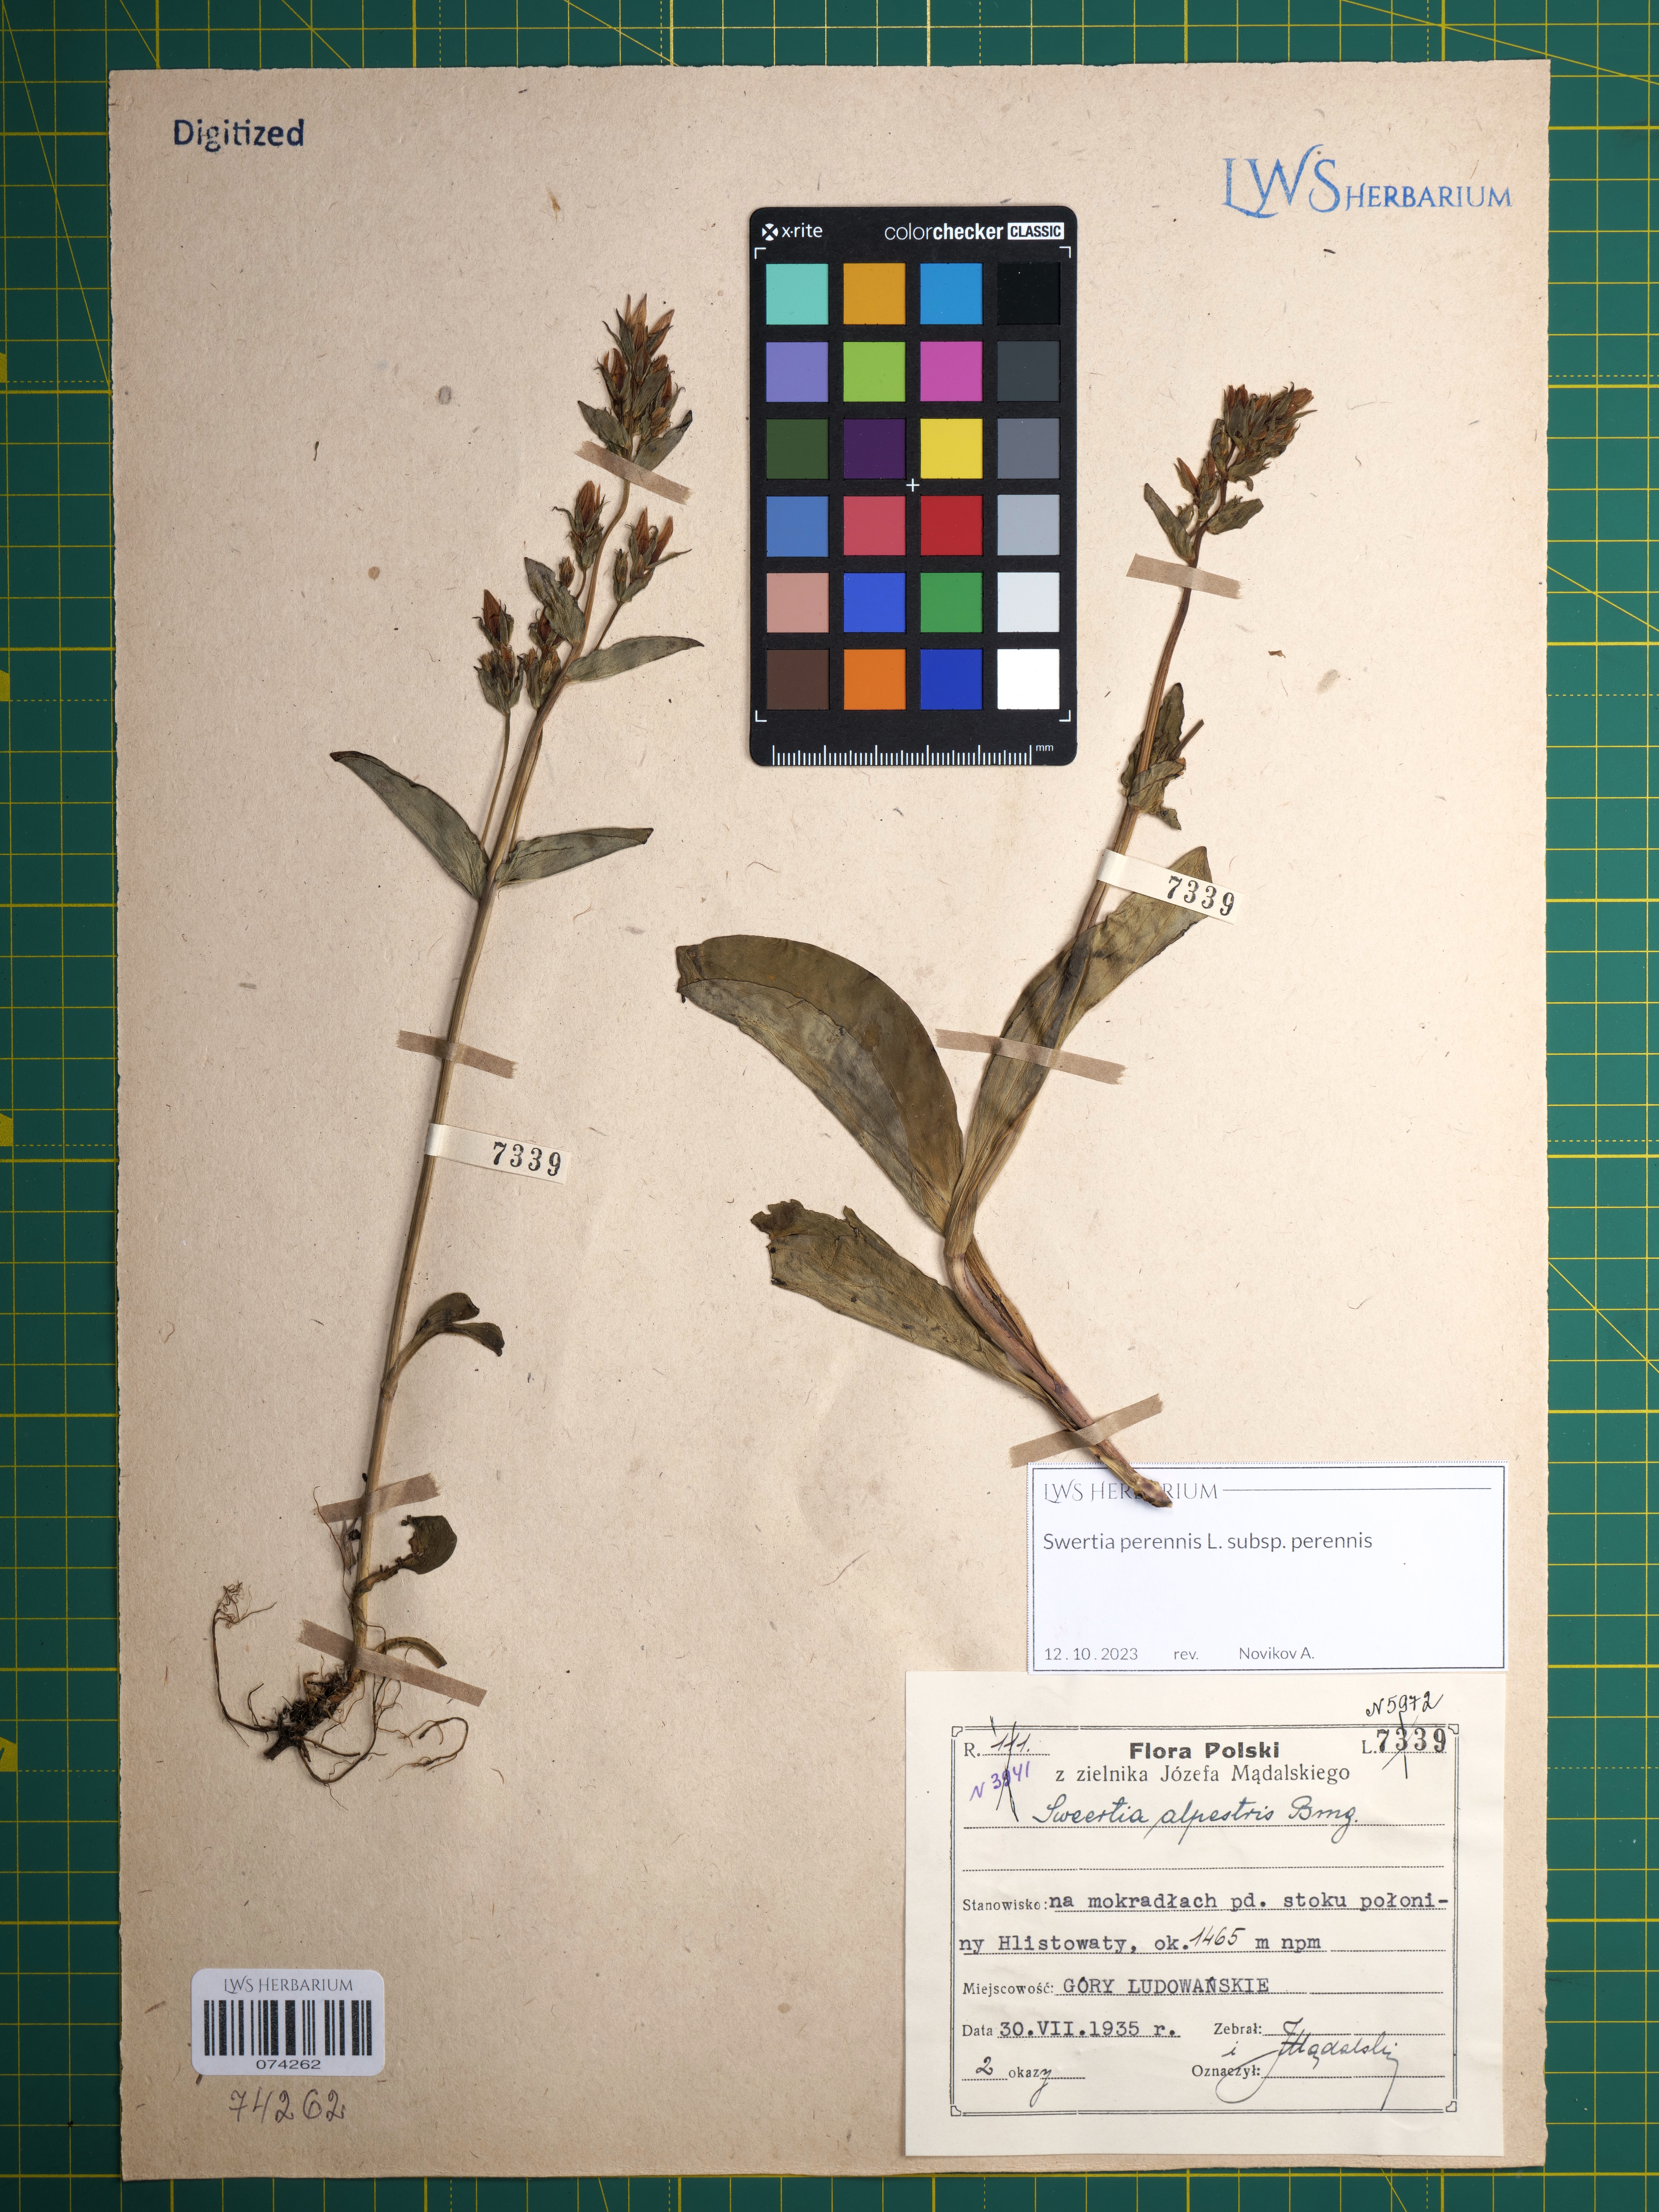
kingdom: Plantae
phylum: Tracheophyta
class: Magnoliopsida
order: Gentianales
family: Gentianaceae
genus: Swertia
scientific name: Swertia perennis
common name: Alpine bog swertia
